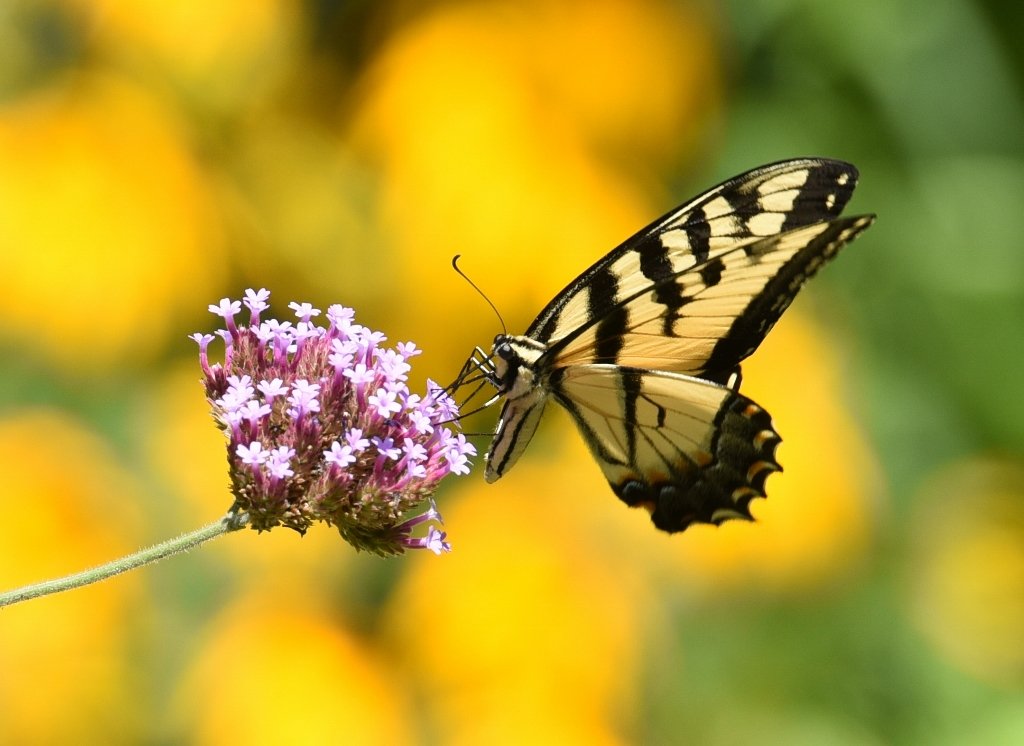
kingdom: Animalia
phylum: Arthropoda
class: Insecta
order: Lepidoptera
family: Papilionidae
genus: Pterourus
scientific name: Pterourus glaucus
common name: Eastern Tiger Swallowtail
